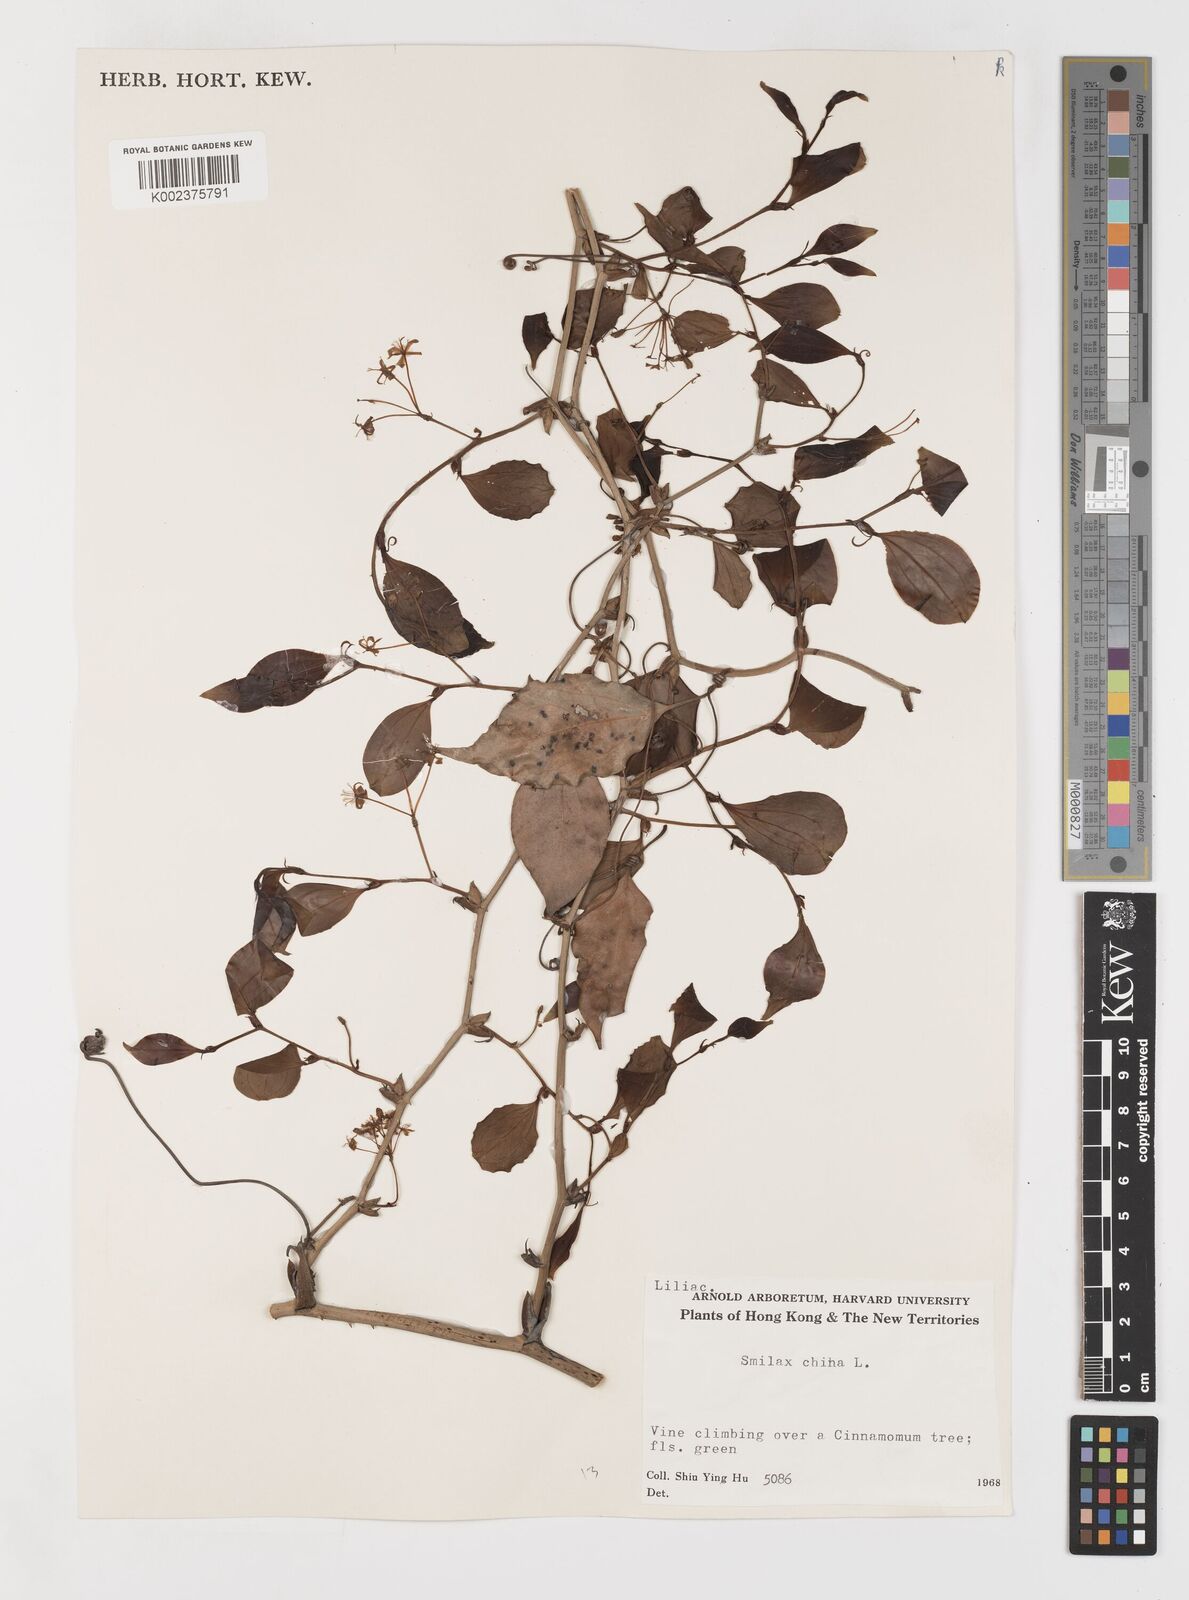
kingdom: Plantae
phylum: Tracheophyta
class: Liliopsida
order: Liliales
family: Smilacaceae
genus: Smilax
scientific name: Smilax china
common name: Chinaroot
